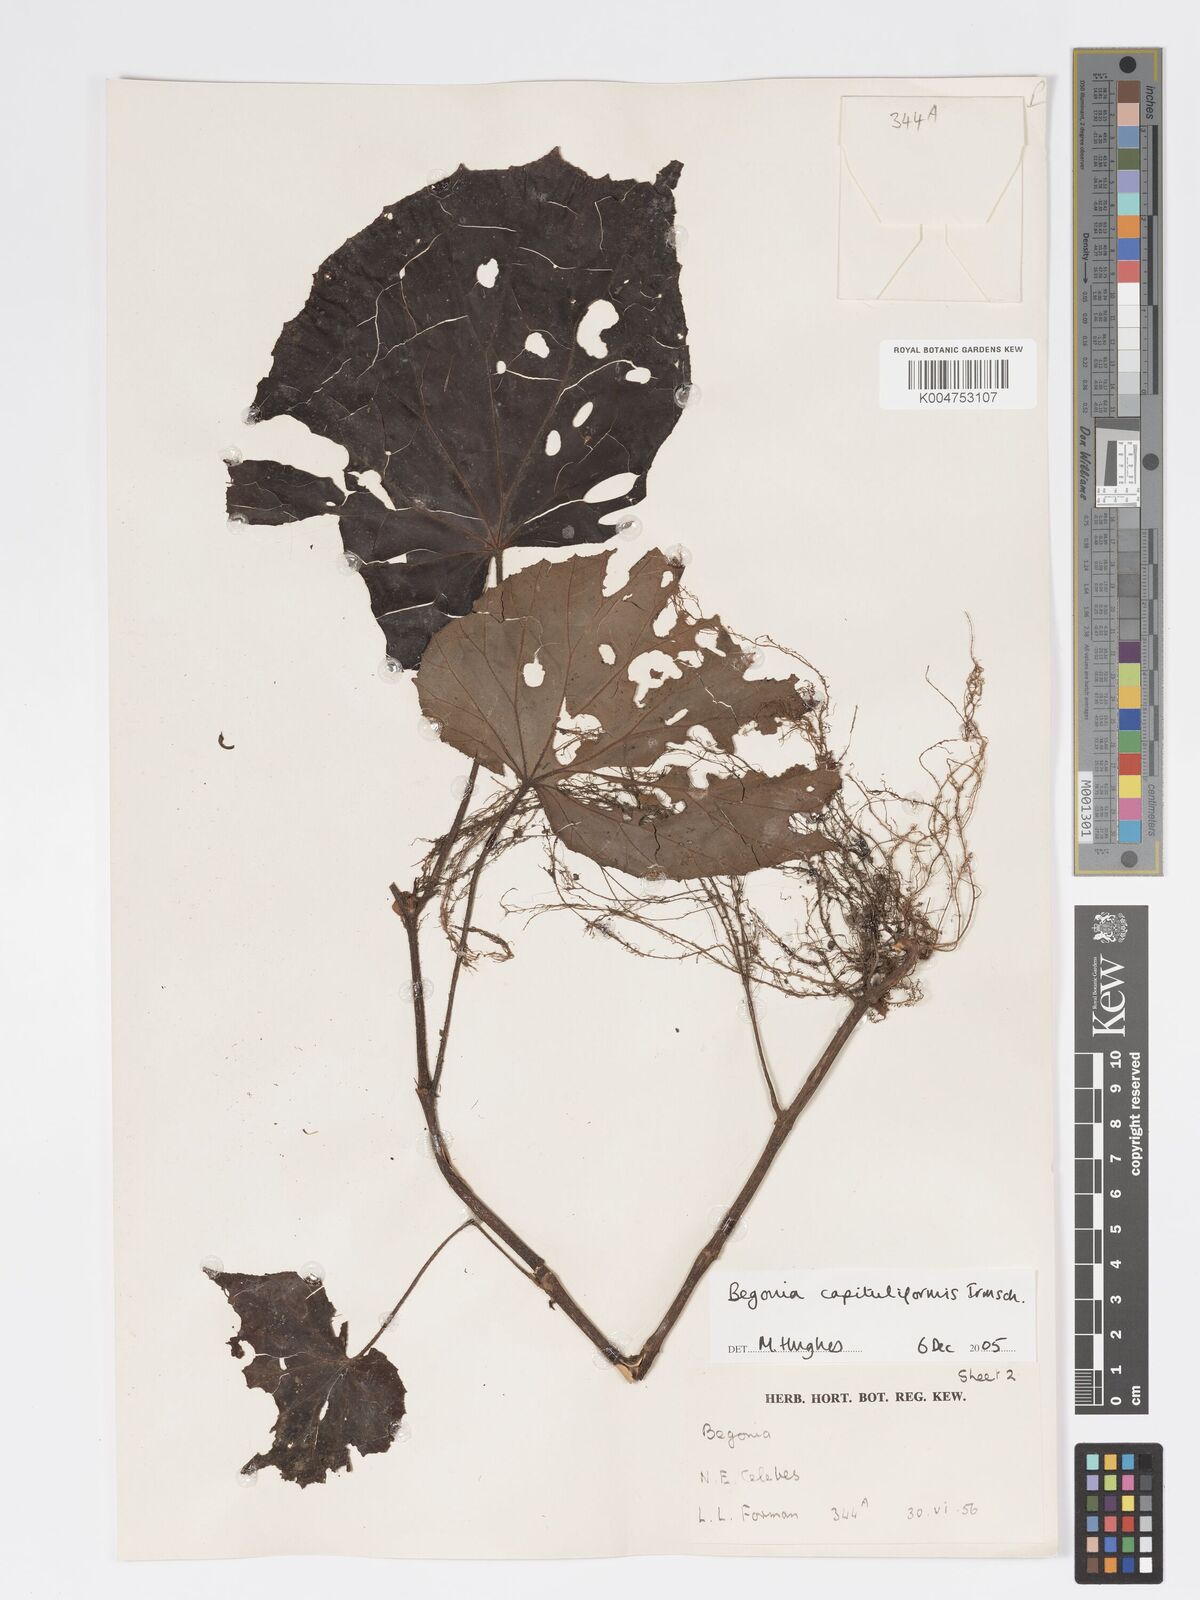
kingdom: Plantae
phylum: Tracheophyta
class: Magnoliopsida
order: Cucurbitales
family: Begoniaceae
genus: Begonia
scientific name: Begonia capituliformis
